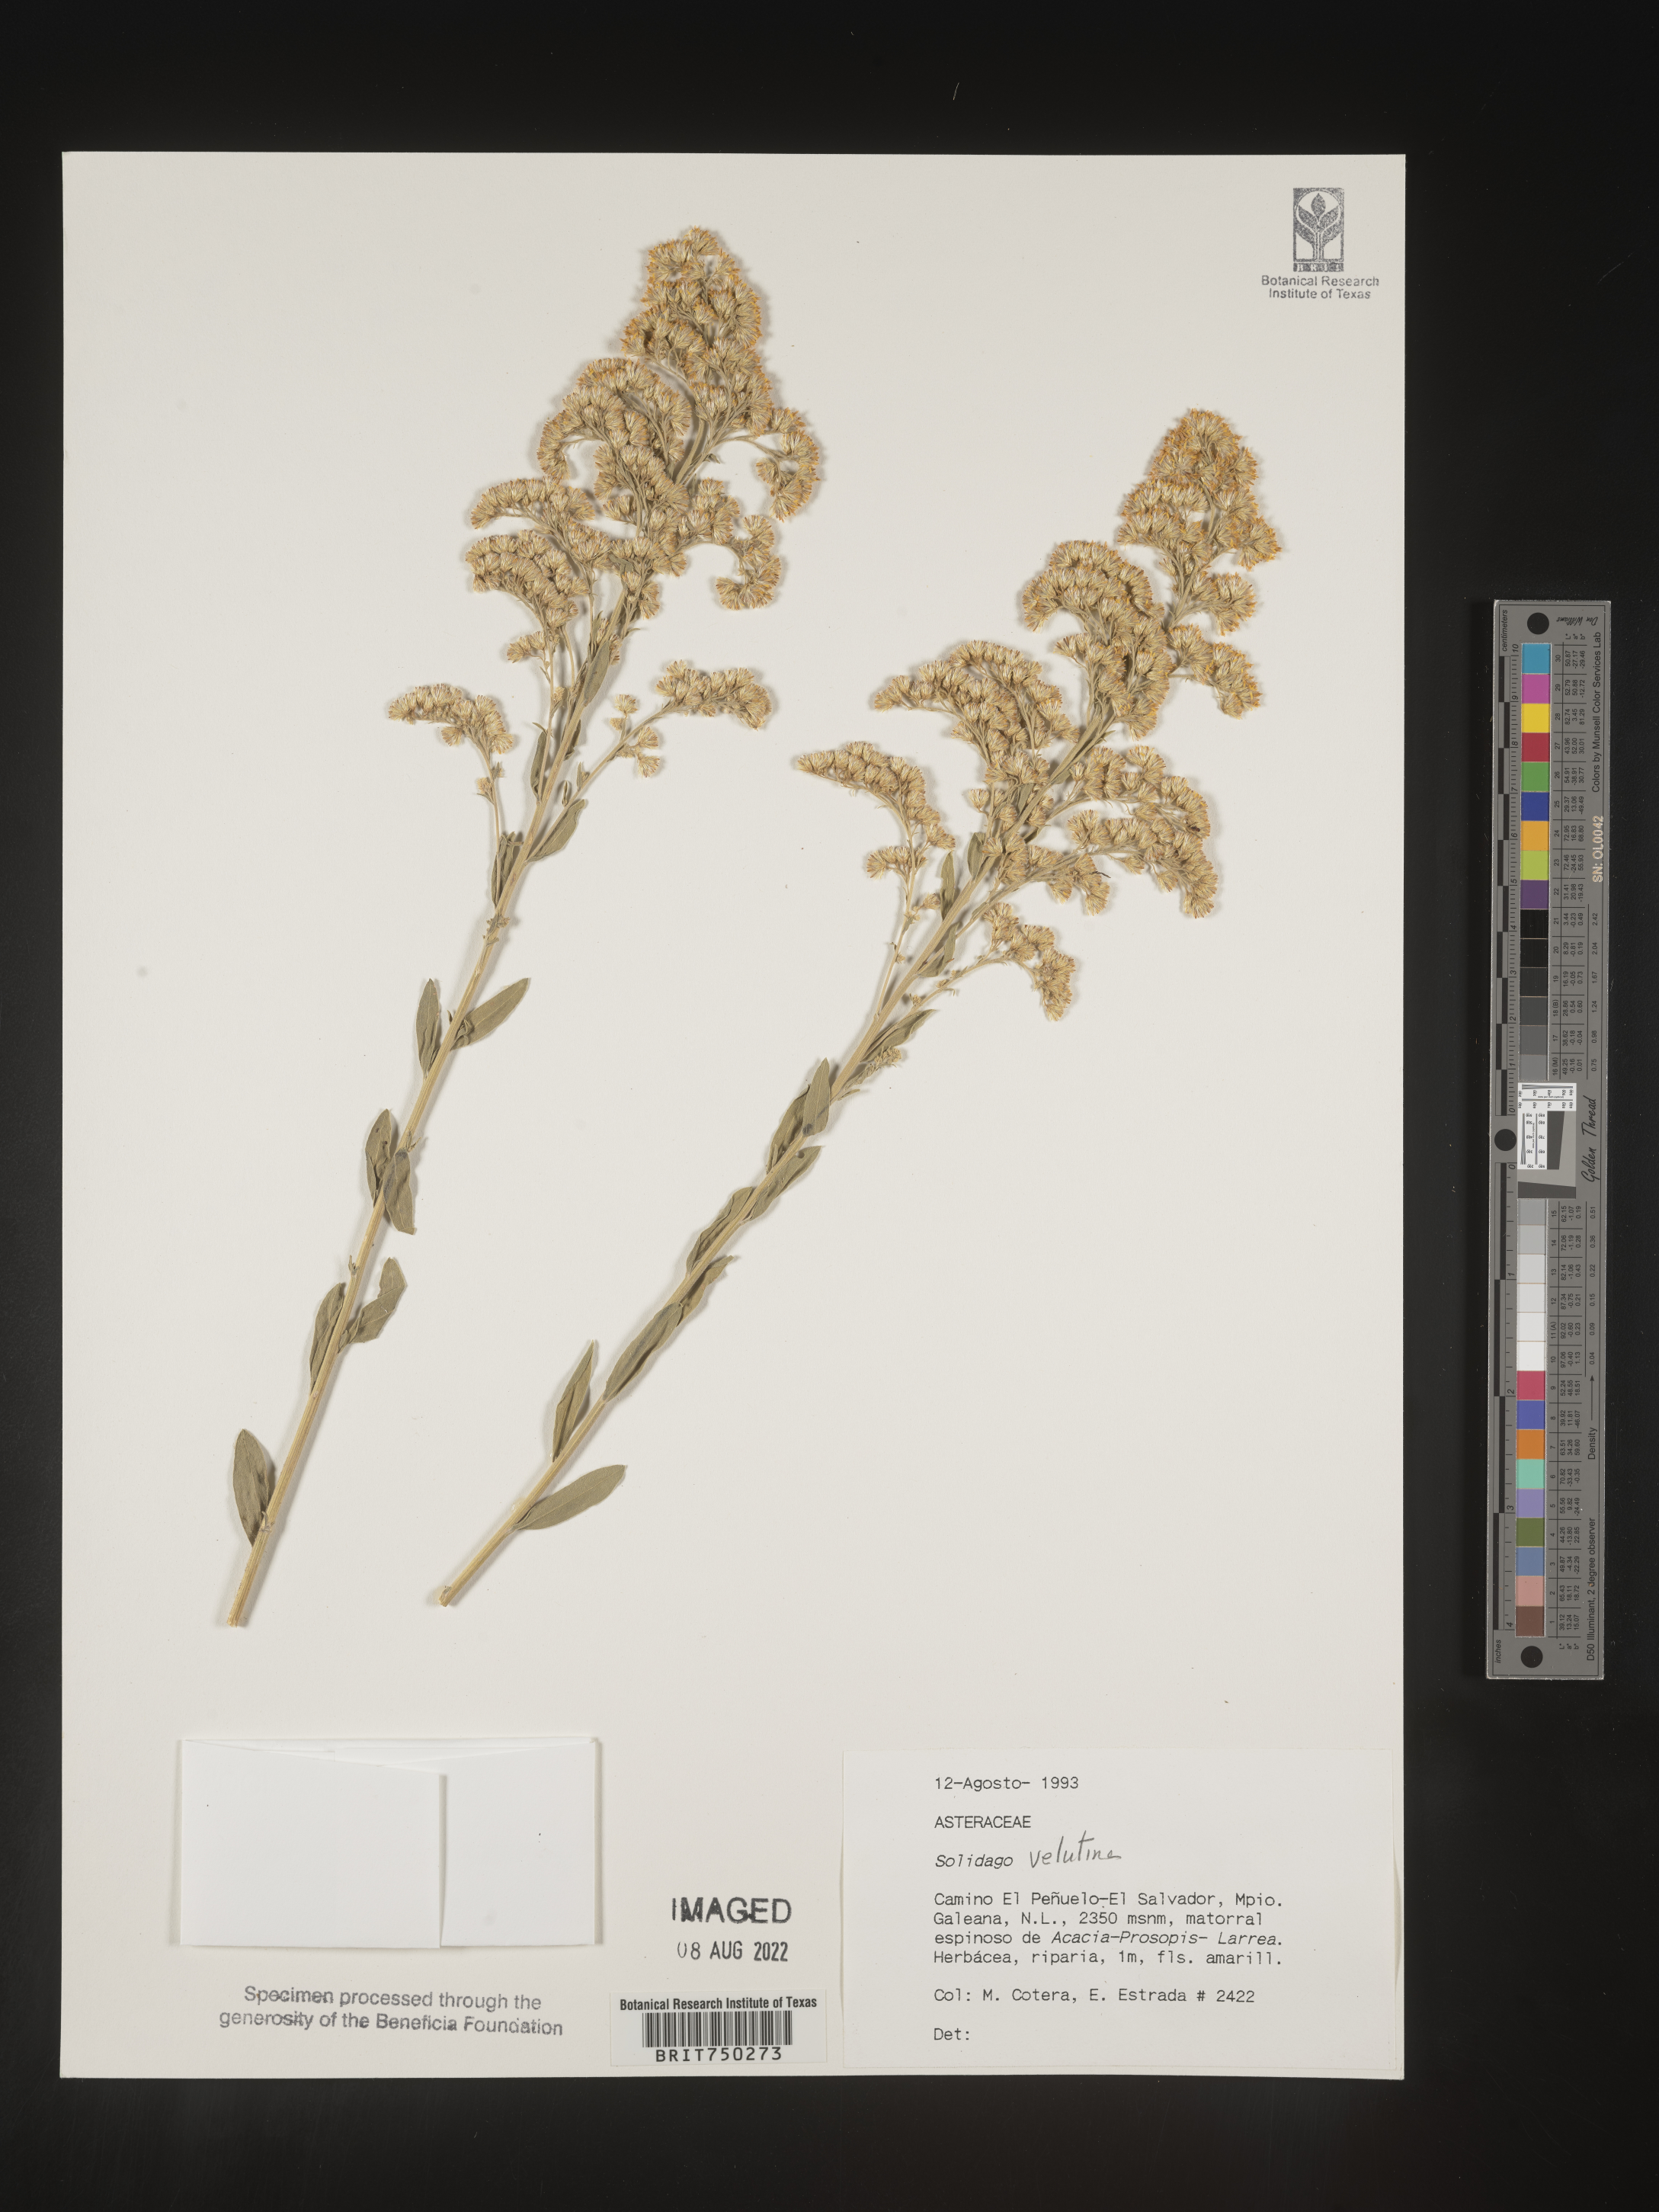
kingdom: Plantae
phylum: Tracheophyta
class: Magnoliopsida
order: Asterales
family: Asteraceae
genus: Solidago
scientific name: Solidago
